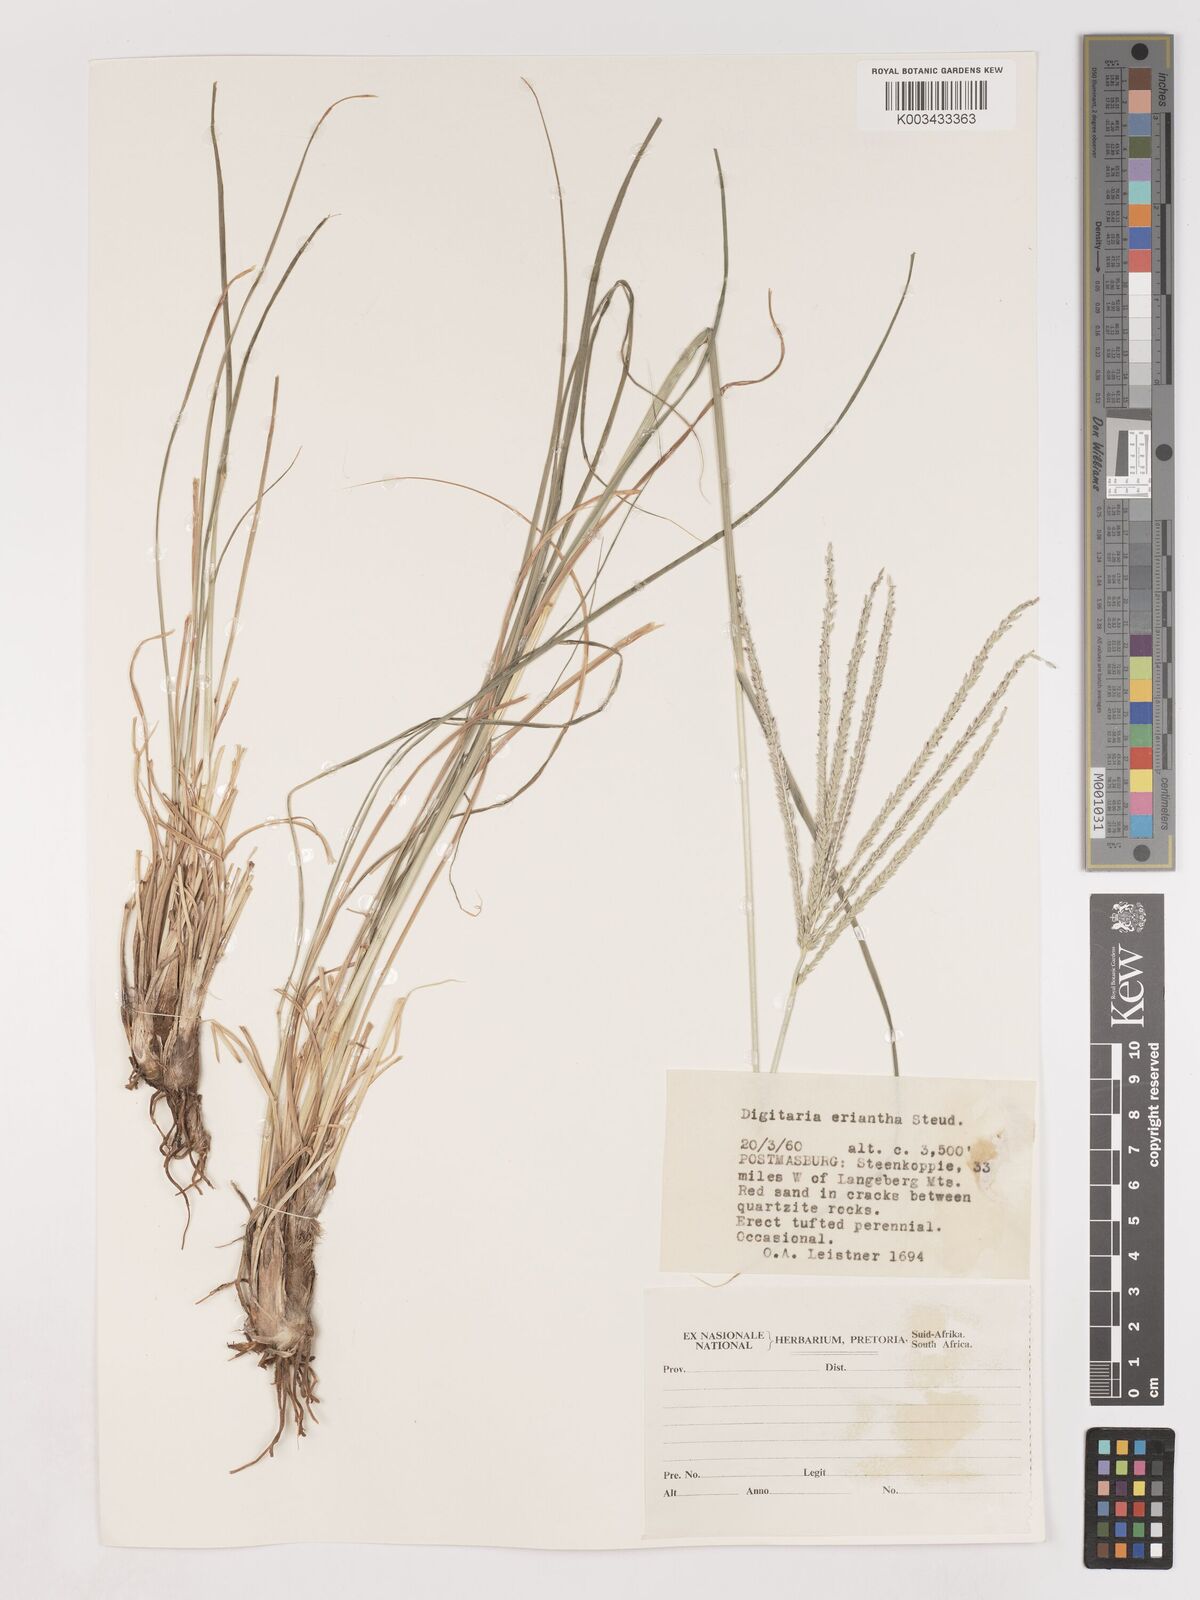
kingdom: Plantae
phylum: Tracheophyta
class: Liliopsida
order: Poales
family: Poaceae
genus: Digitaria
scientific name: Digitaria eriantha
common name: Digitgrass
